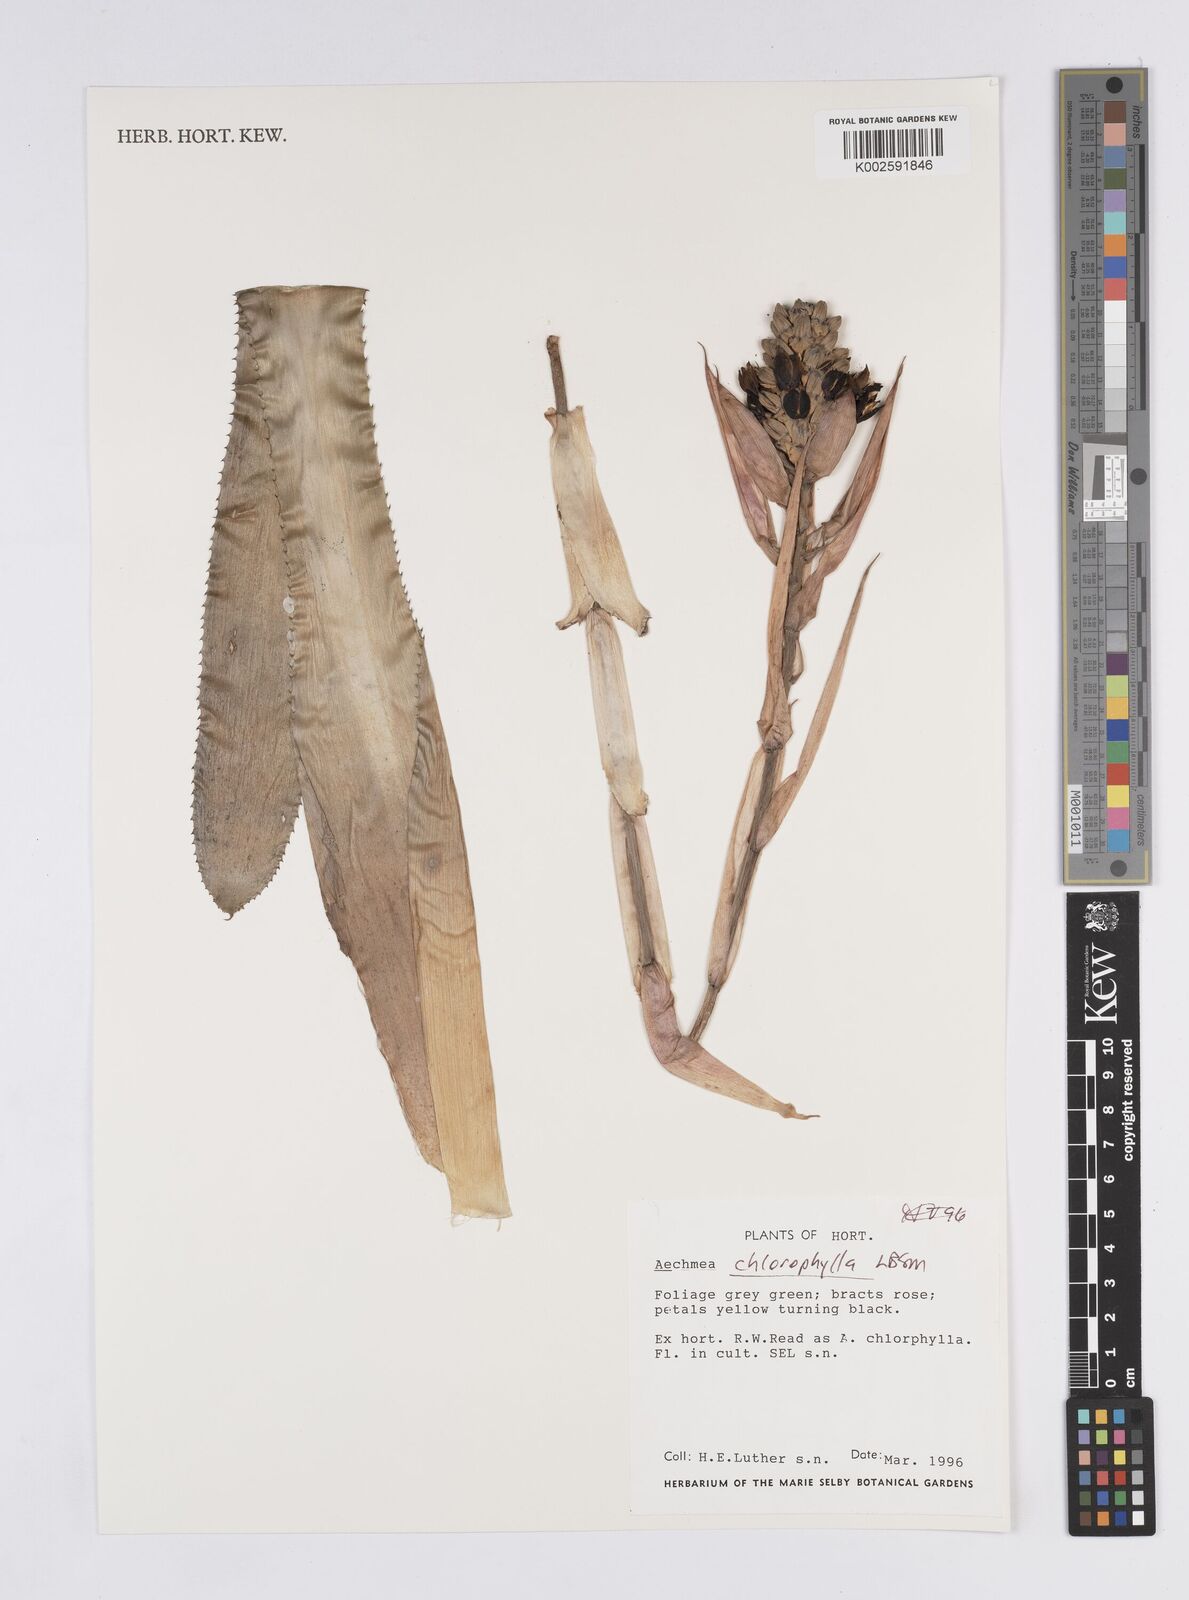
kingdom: Plantae
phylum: Tracheophyta
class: Liliopsida
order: Poales
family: Bromeliaceae
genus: Aechmea
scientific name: Aechmea lamarchei
